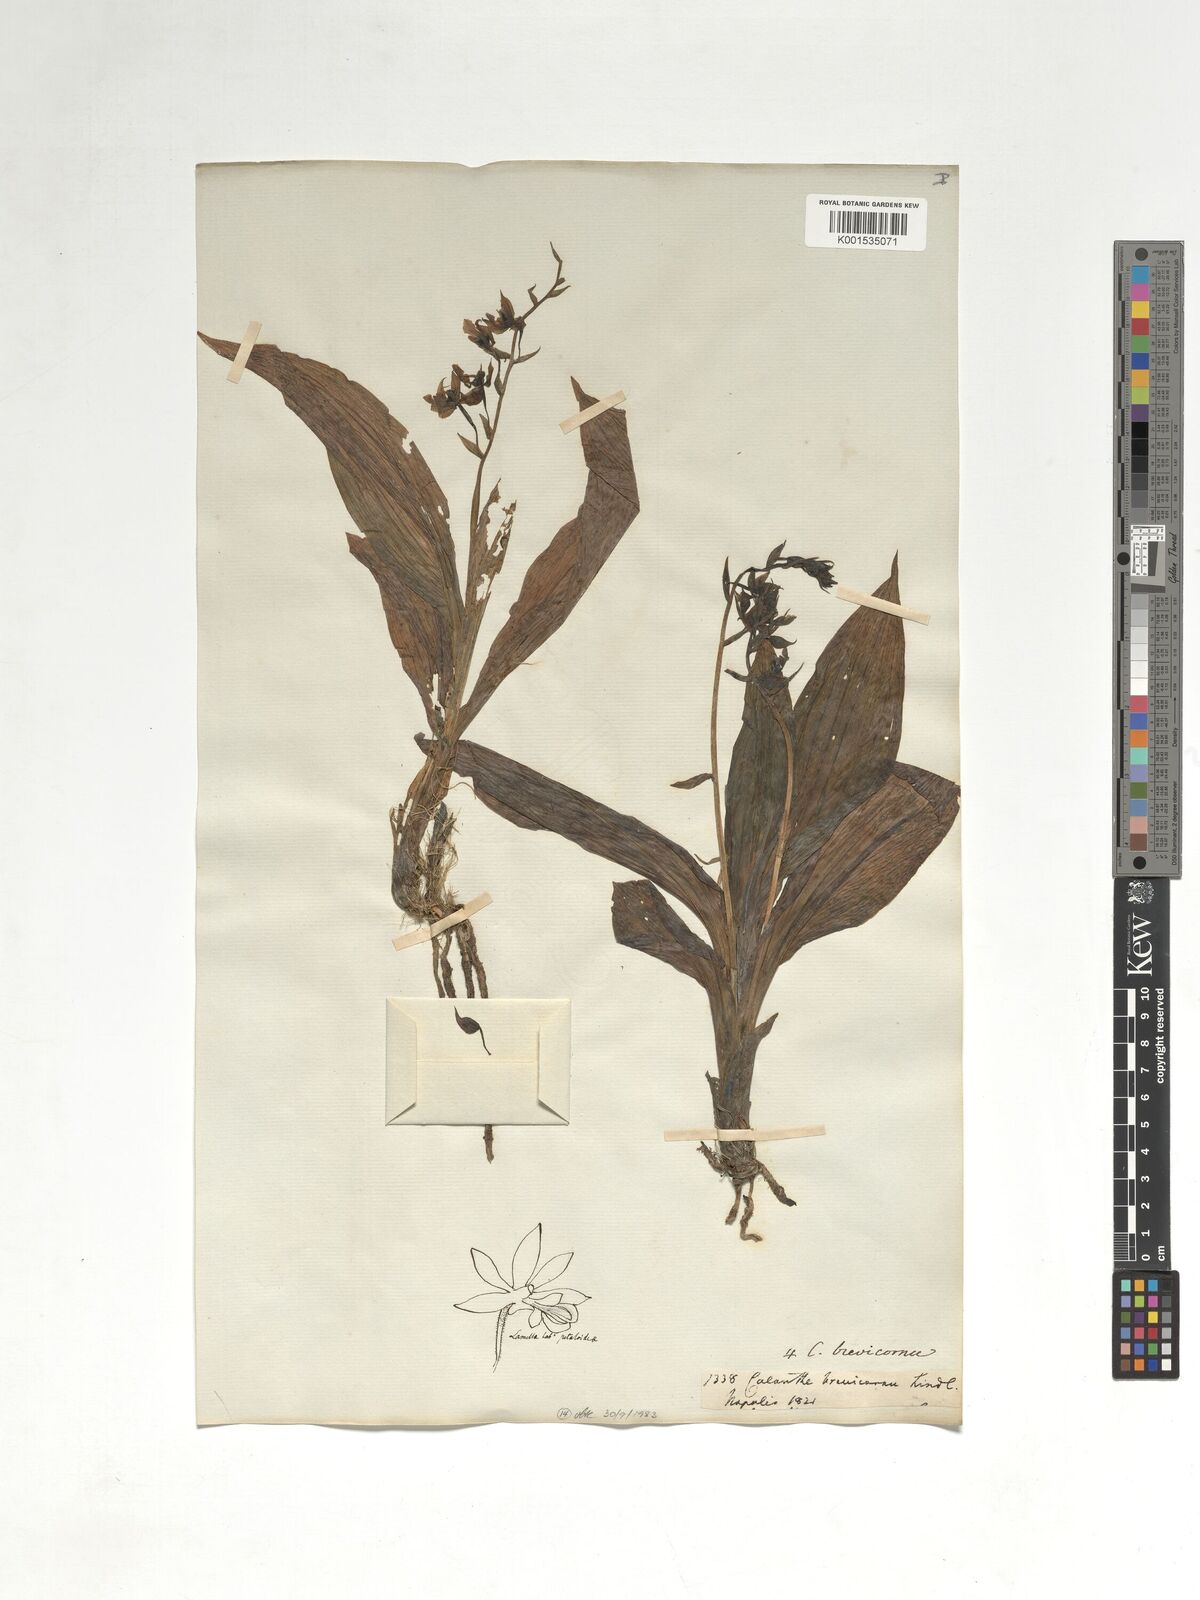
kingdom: Plantae
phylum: Tracheophyta
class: Liliopsida
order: Asparagales
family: Orchidaceae
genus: Calanthe
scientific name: Calanthe brevicornu
